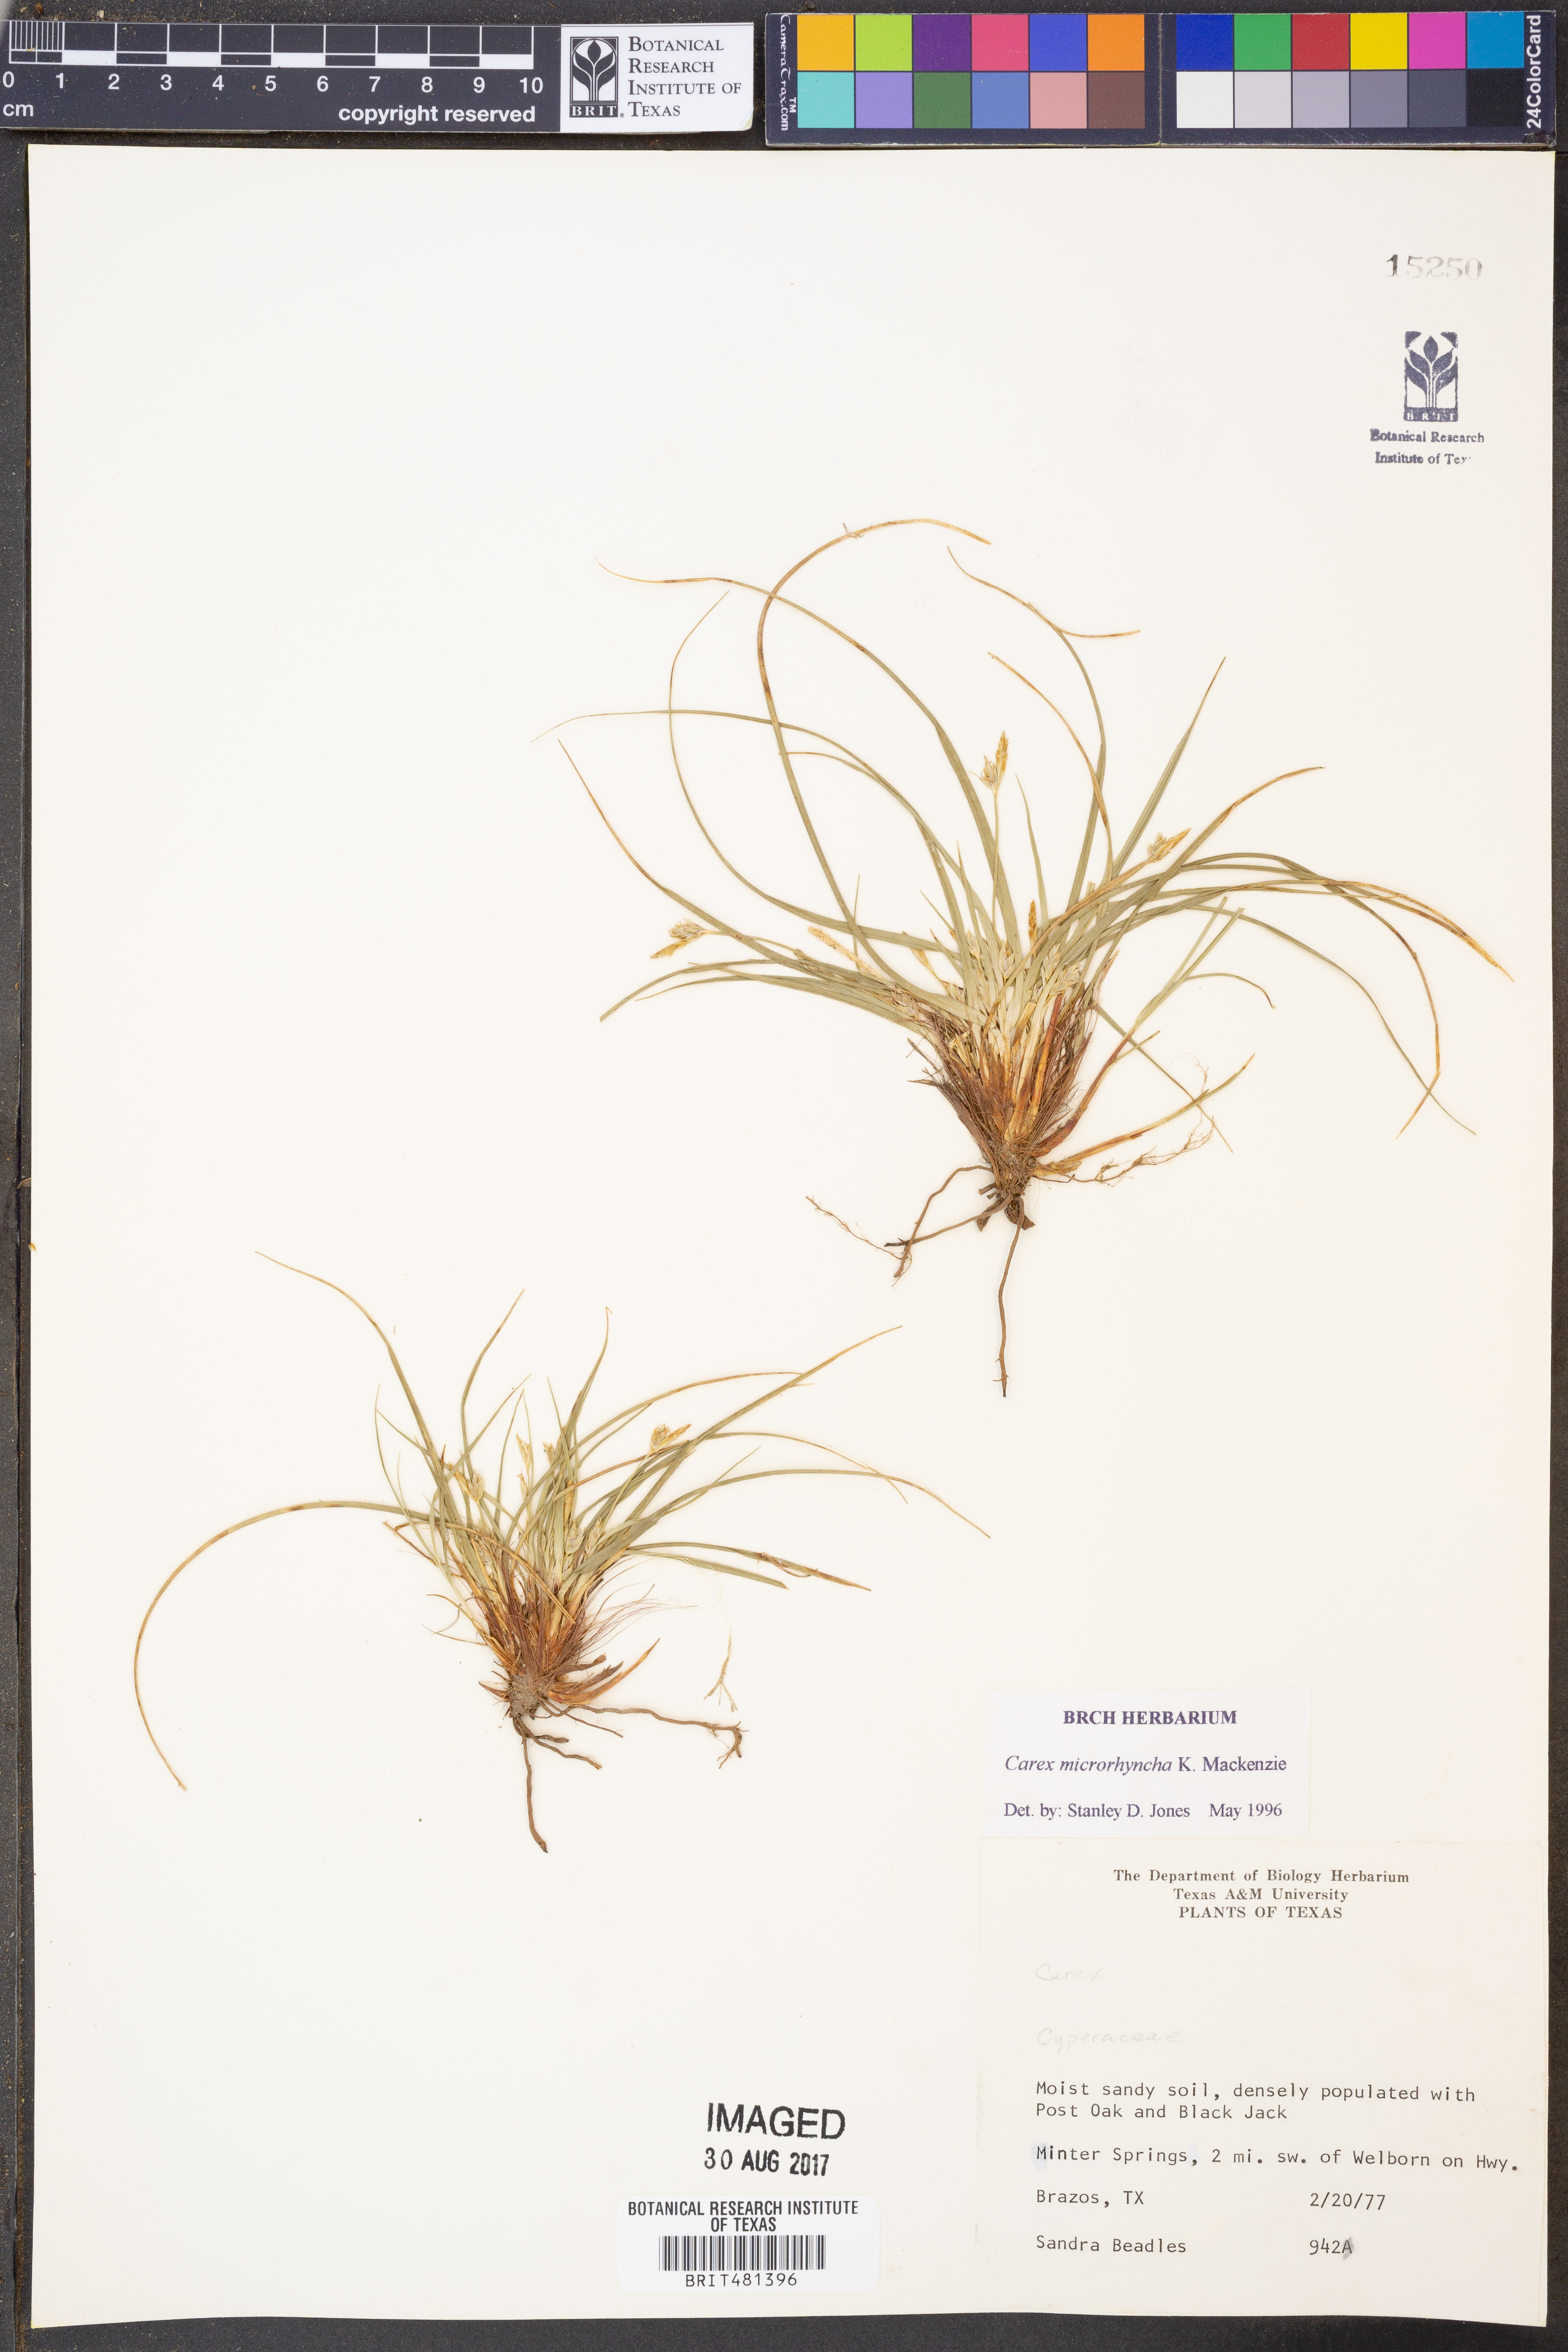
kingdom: Plantae
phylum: Tracheophyta
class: Liliopsida
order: Poales
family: Cyperaceae
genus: Carex
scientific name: Carex microrhyncha
